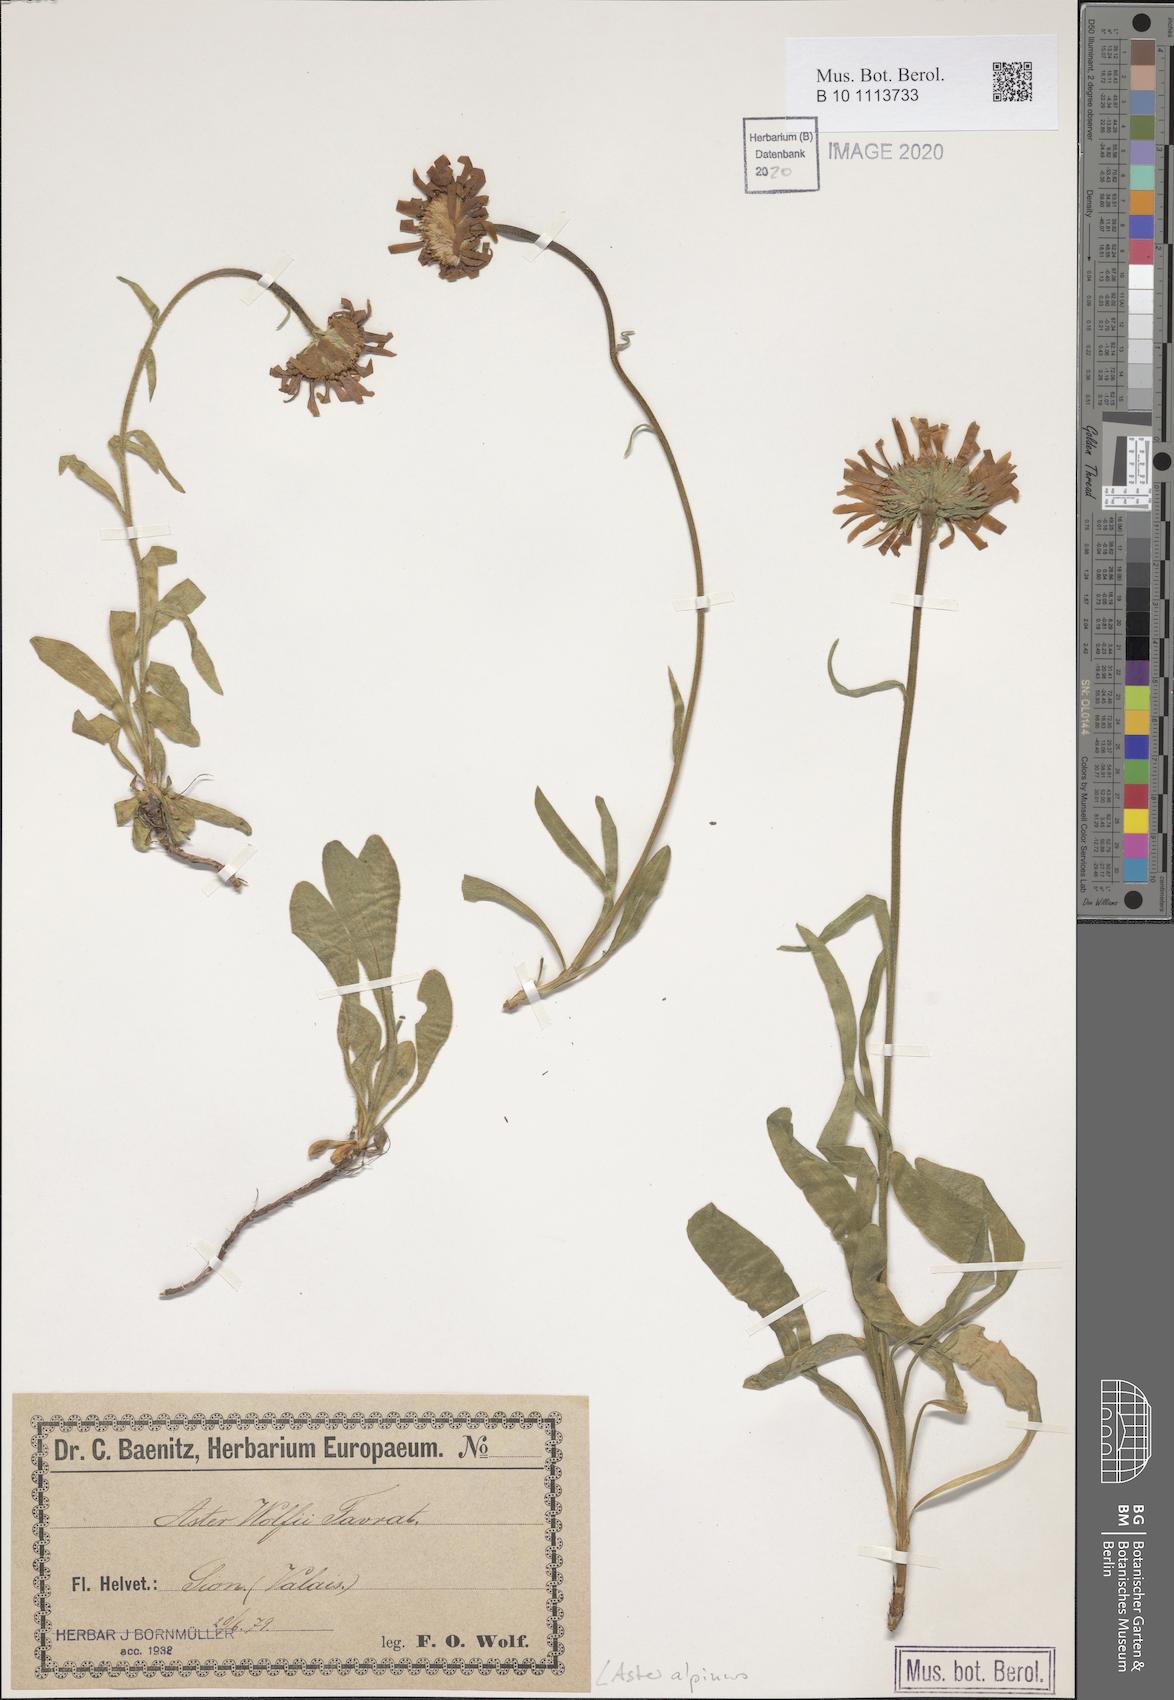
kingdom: Plantae
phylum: Tracheophyta
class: Magnoliopsida
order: Asterales
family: Asteraceae
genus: Aster
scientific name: Aster alpinus
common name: Alpine aster
